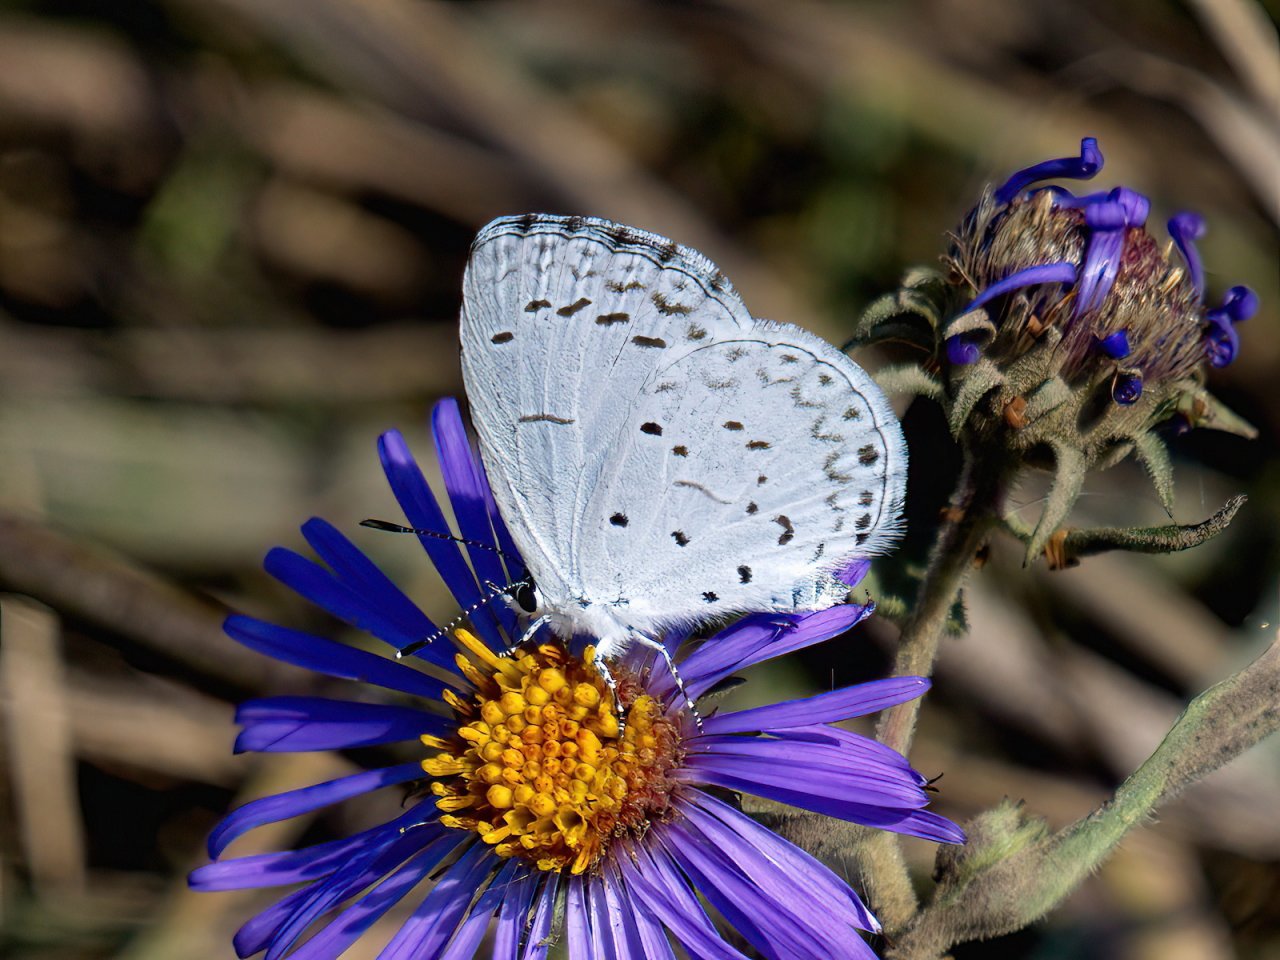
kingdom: Animalia
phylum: Arthropoda
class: Insecta
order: Lepidoptera
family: Lycaenidae
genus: Cyaniris
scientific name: Cyaniris neglecta
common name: Summer Azure
